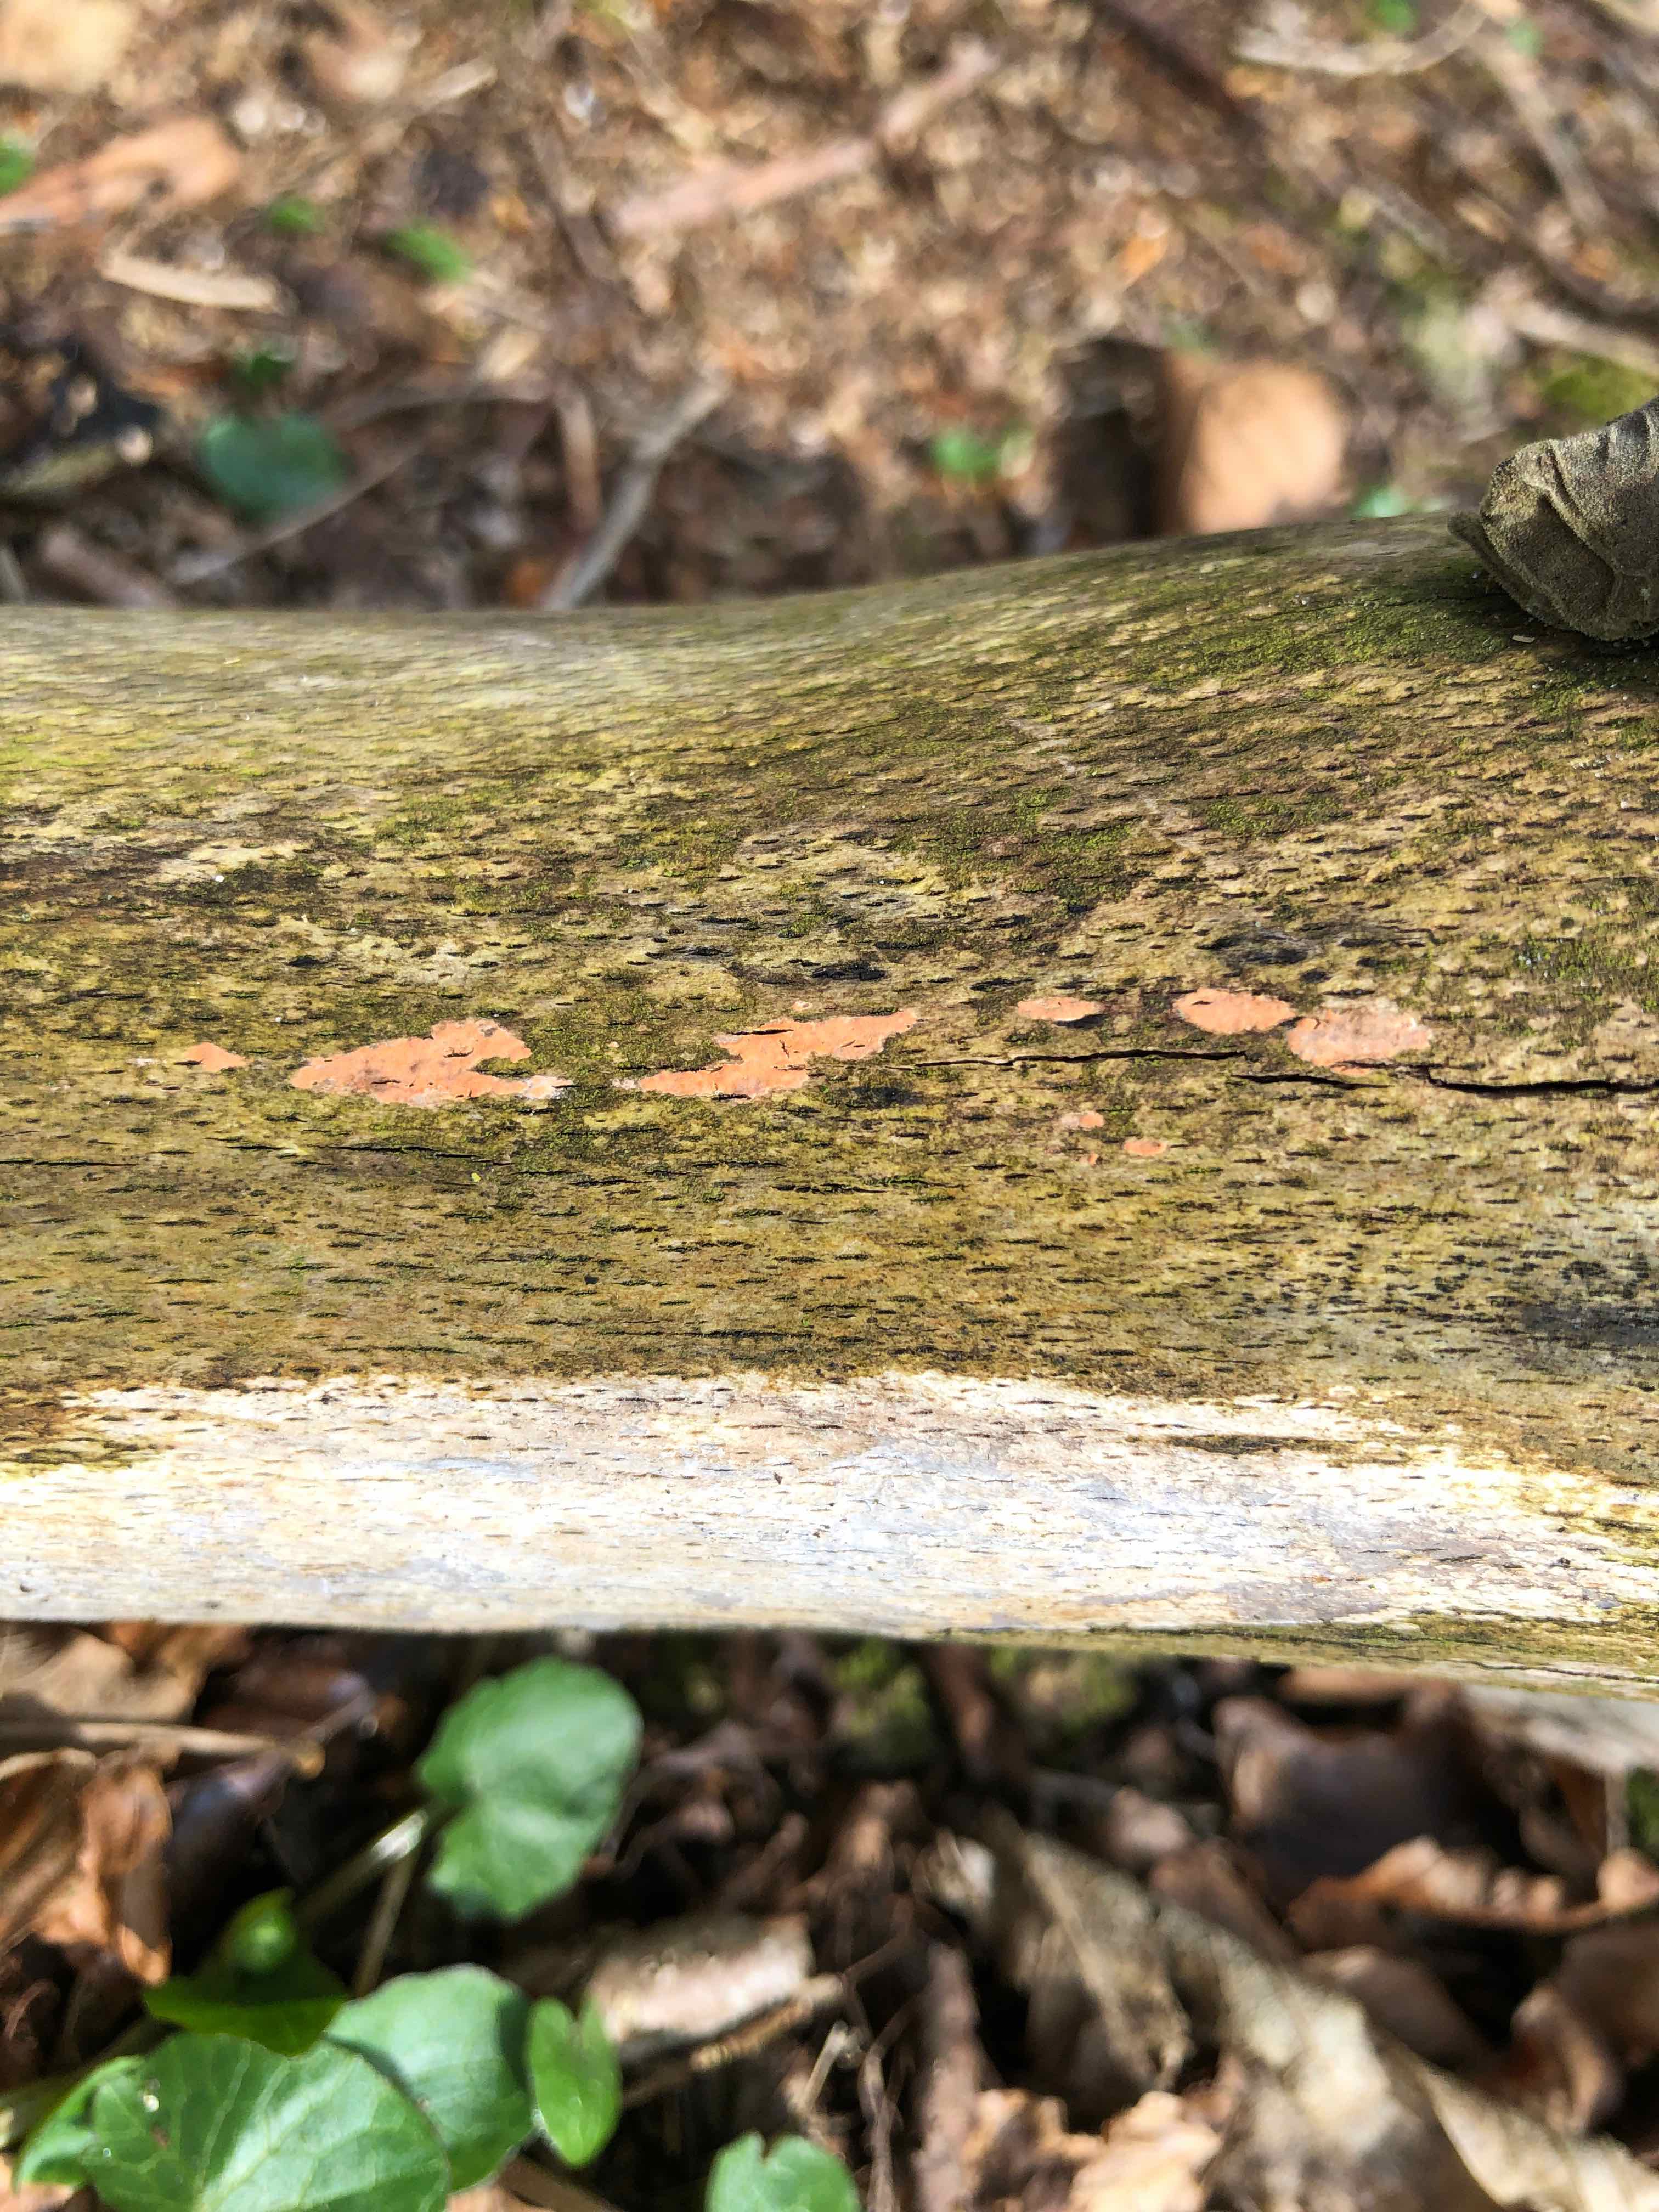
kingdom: Fungi
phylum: Basidiomycota
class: Agaricomycetes
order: Russulales
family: Peniophoraceae
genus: Peniophora
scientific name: Peniophora incarnata
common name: laksefarvet voksskind
